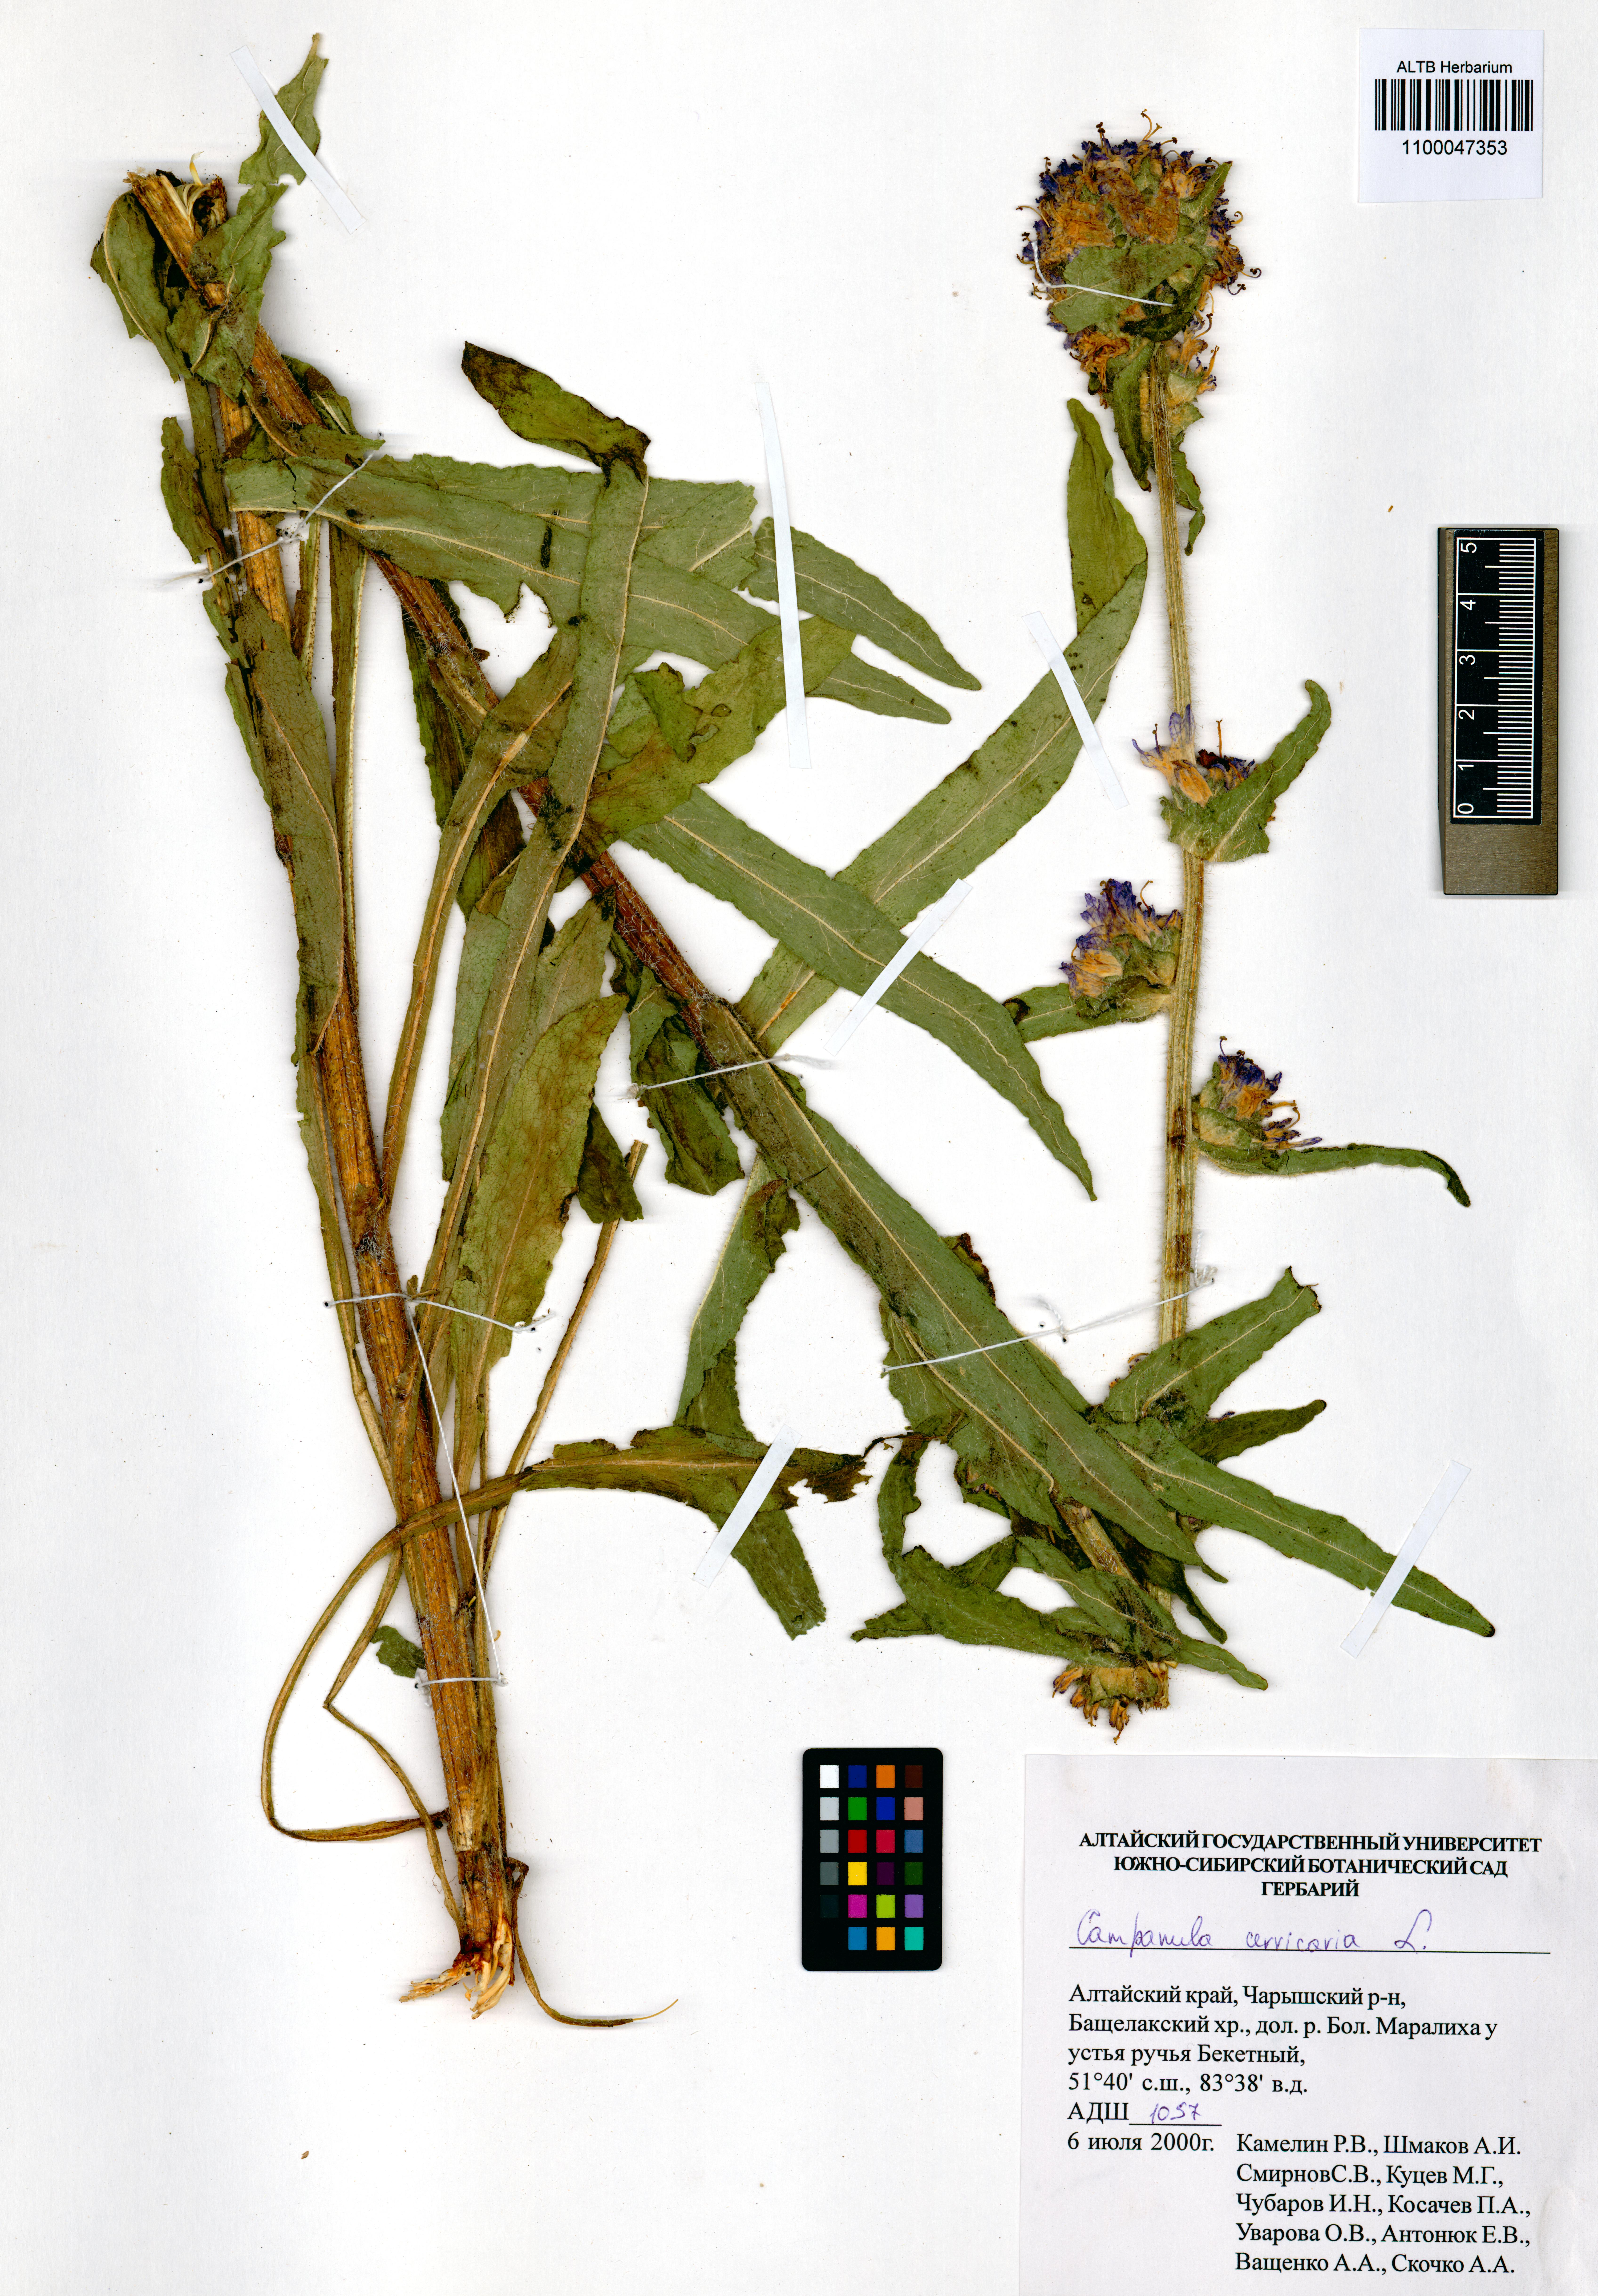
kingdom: Plantae
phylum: Tracheophyta
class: Magnoliopsida
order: Asterales
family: Campanulaceae
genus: Campanula
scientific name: Campanula cervicaria
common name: Bristly bellflower
